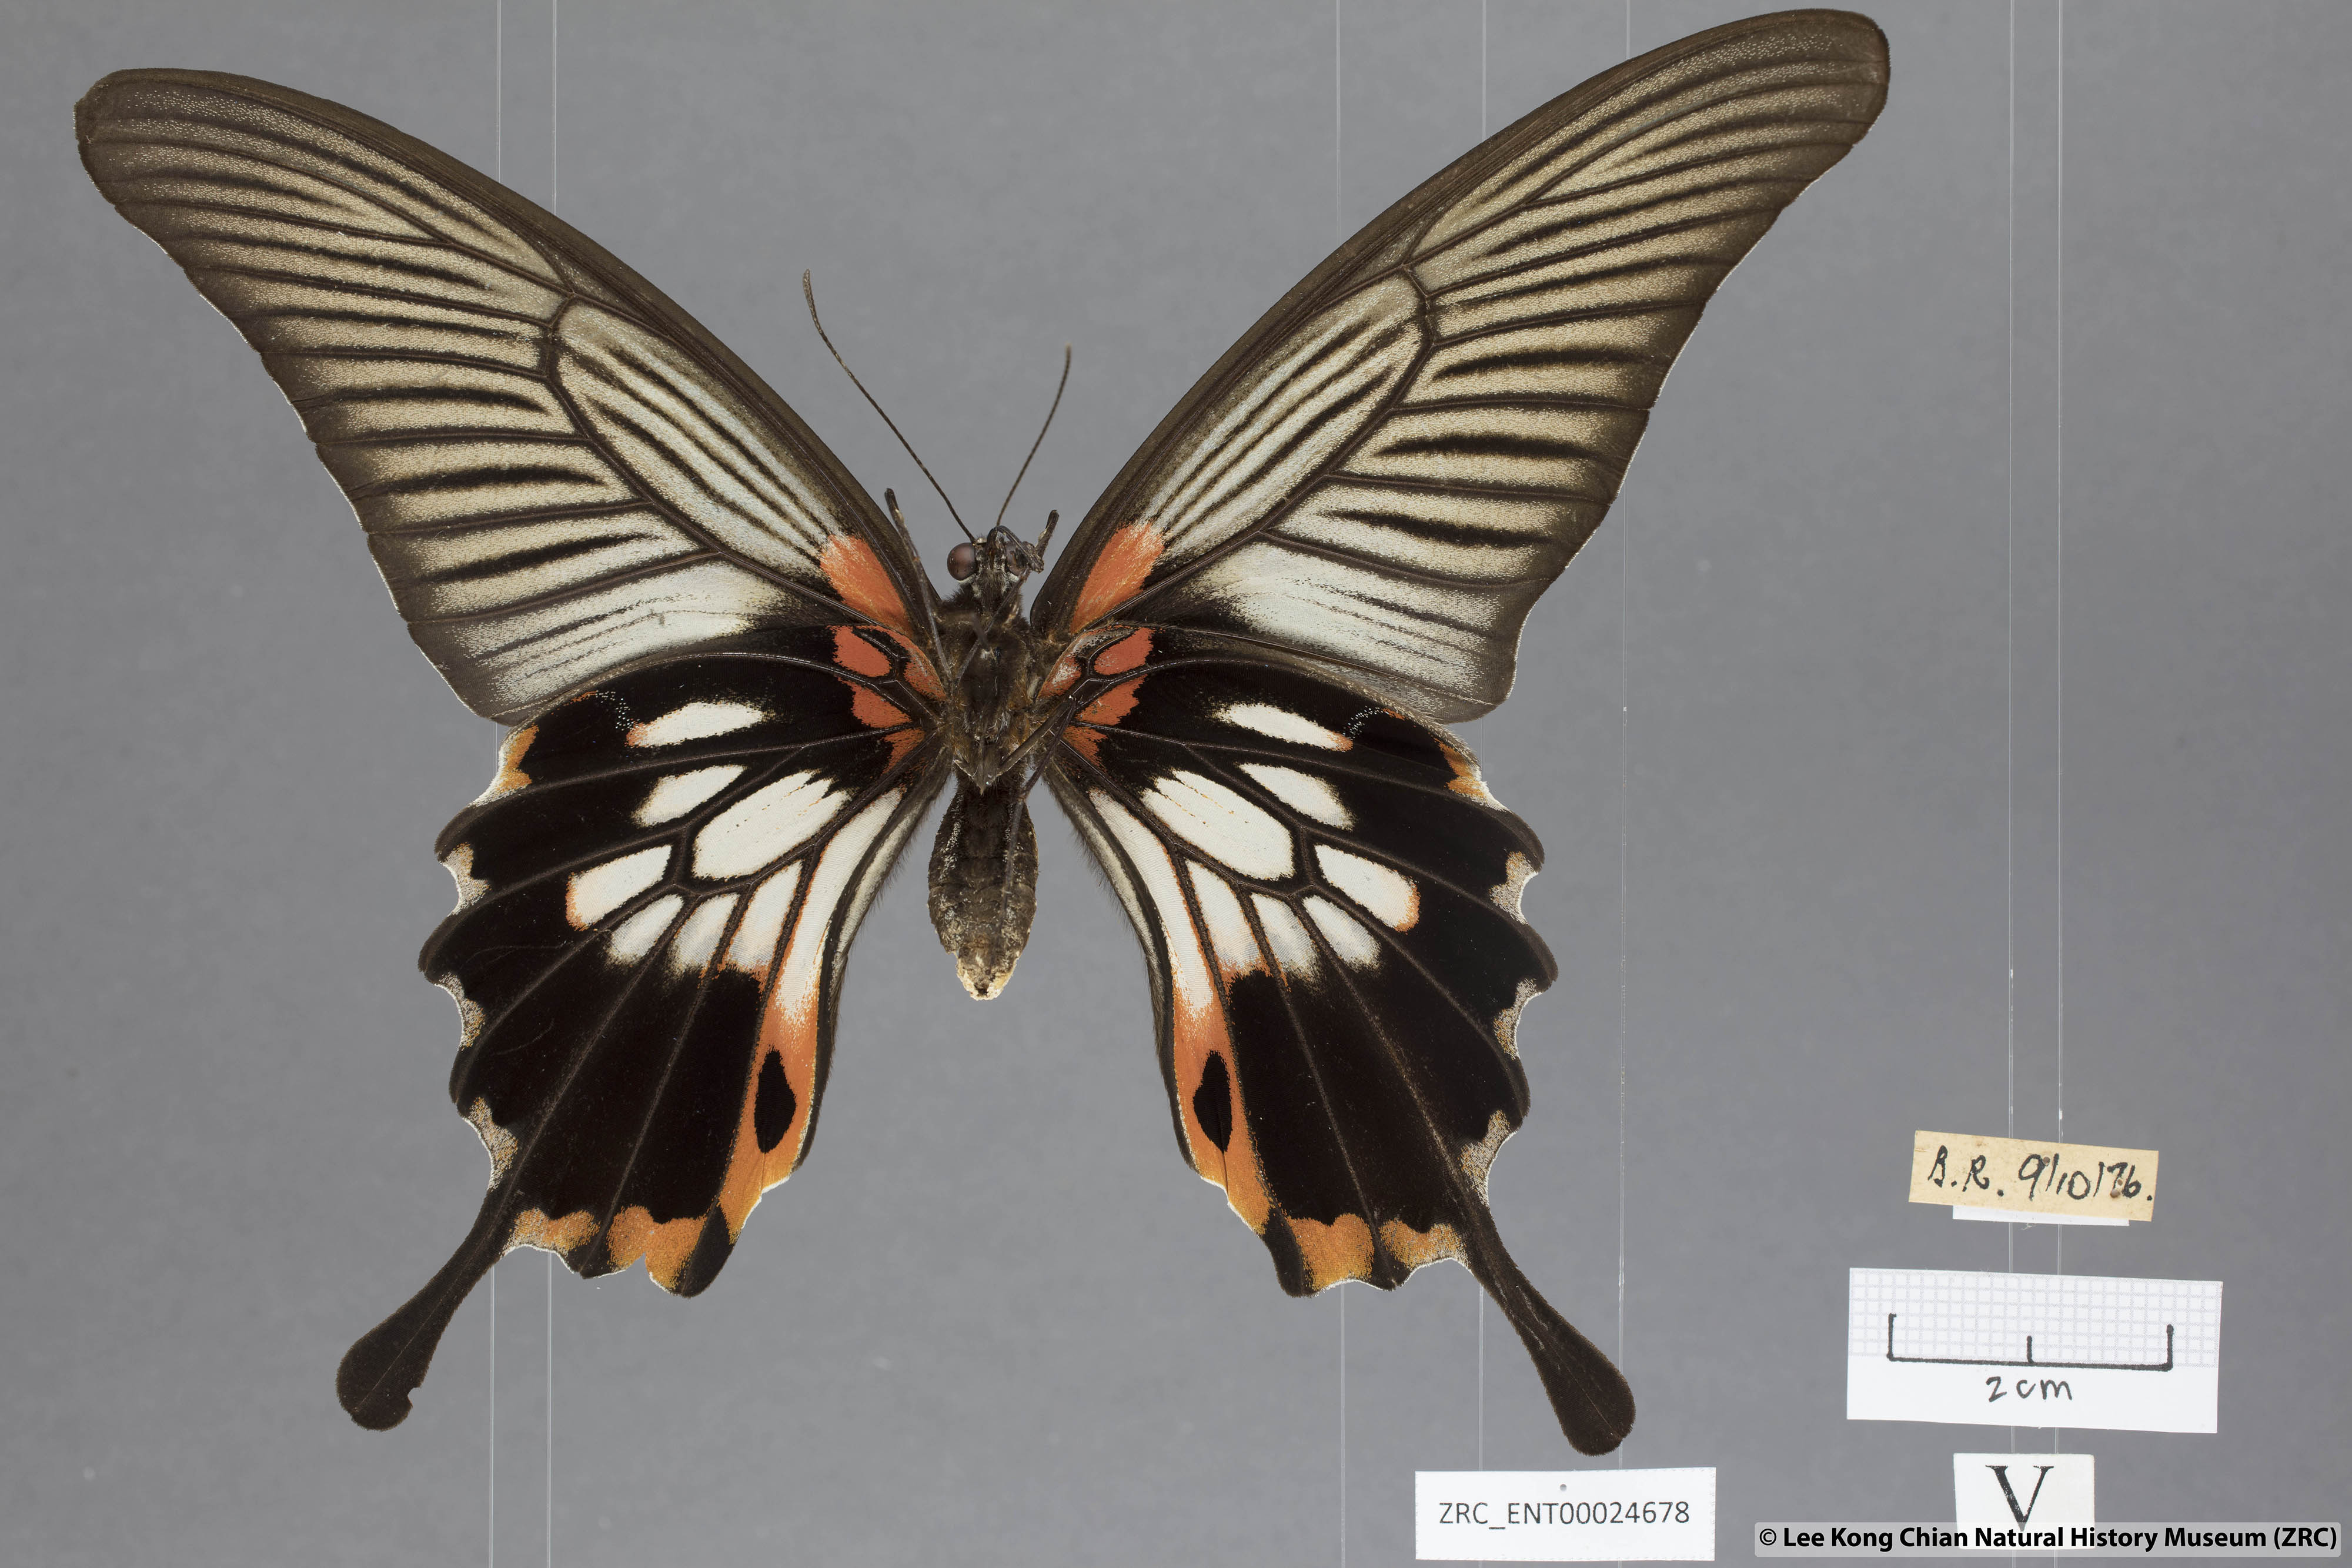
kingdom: Animalia
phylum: Arthropoda
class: Insecta
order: Lepidoptera
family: Papilionidae
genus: Papilio
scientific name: Papilio memnon
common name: Great mormon
